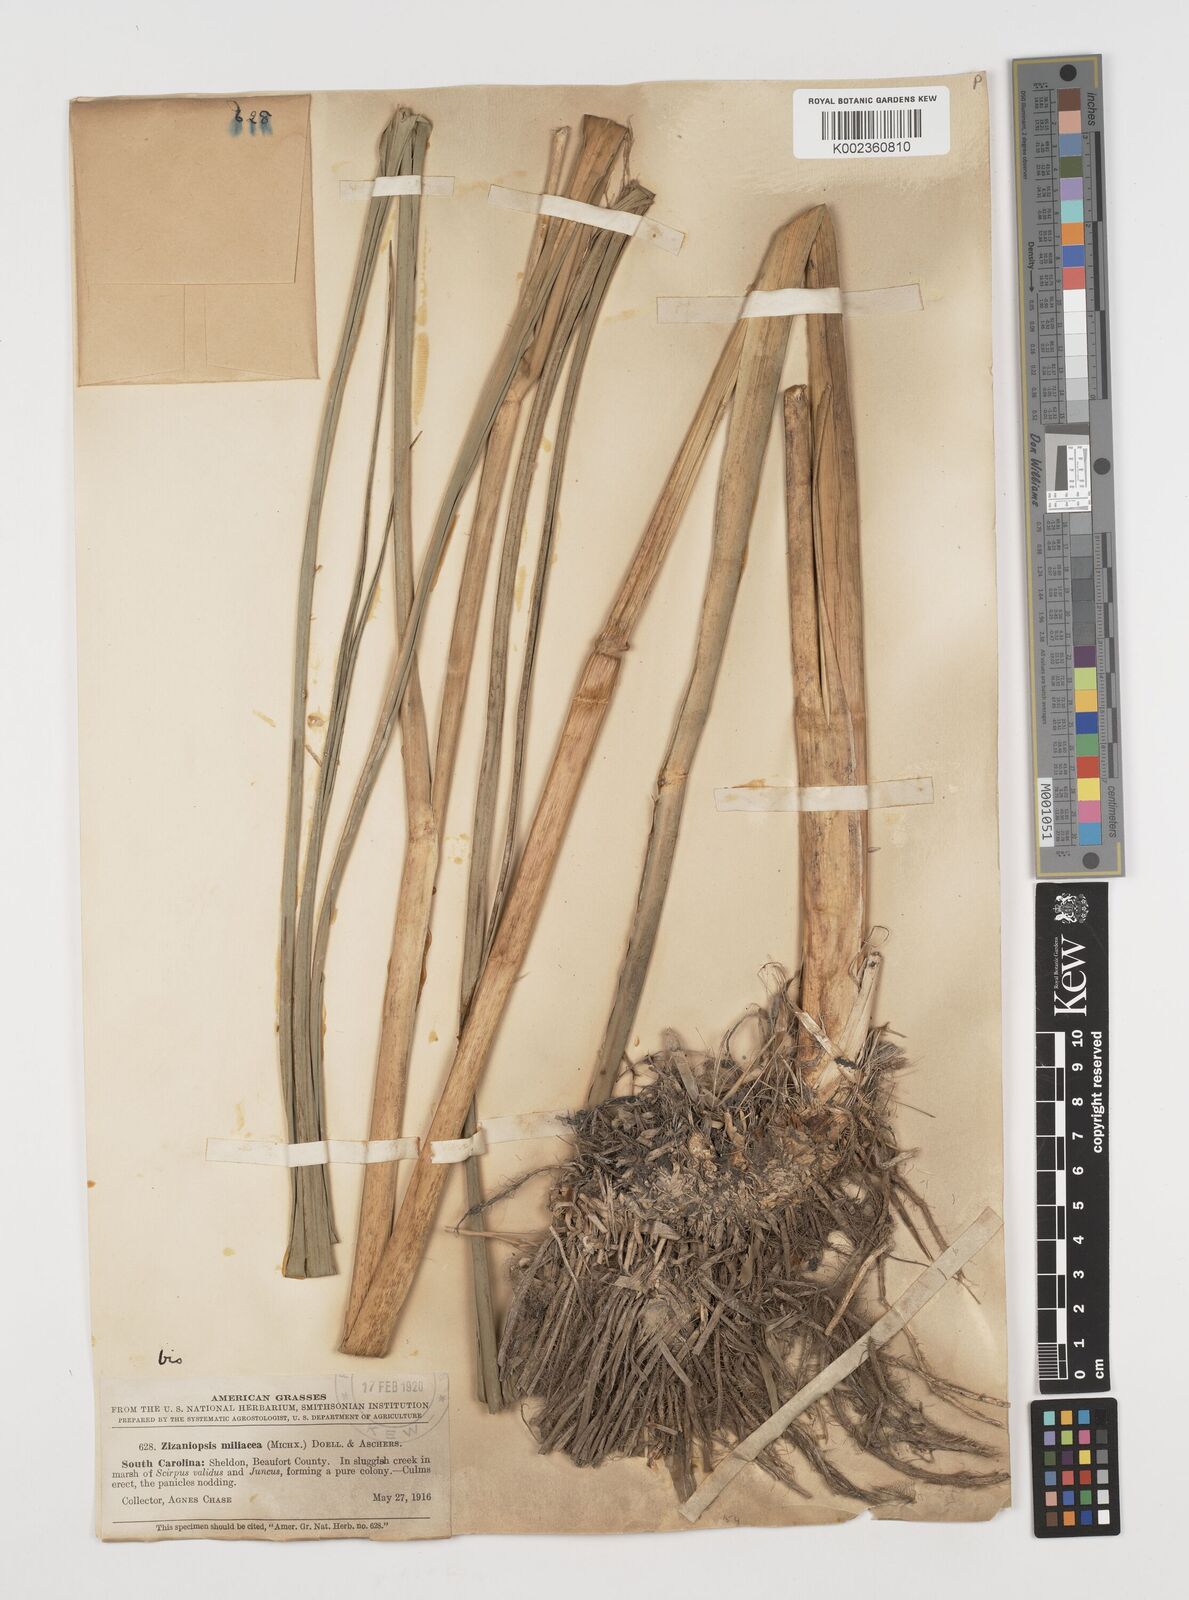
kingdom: Plantae
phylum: Tracheophyta
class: Liliopsida
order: Poales
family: Poaceae
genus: Zizaniopsis
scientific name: Zizaniopsis miliacea
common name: Giant-cutgrass
